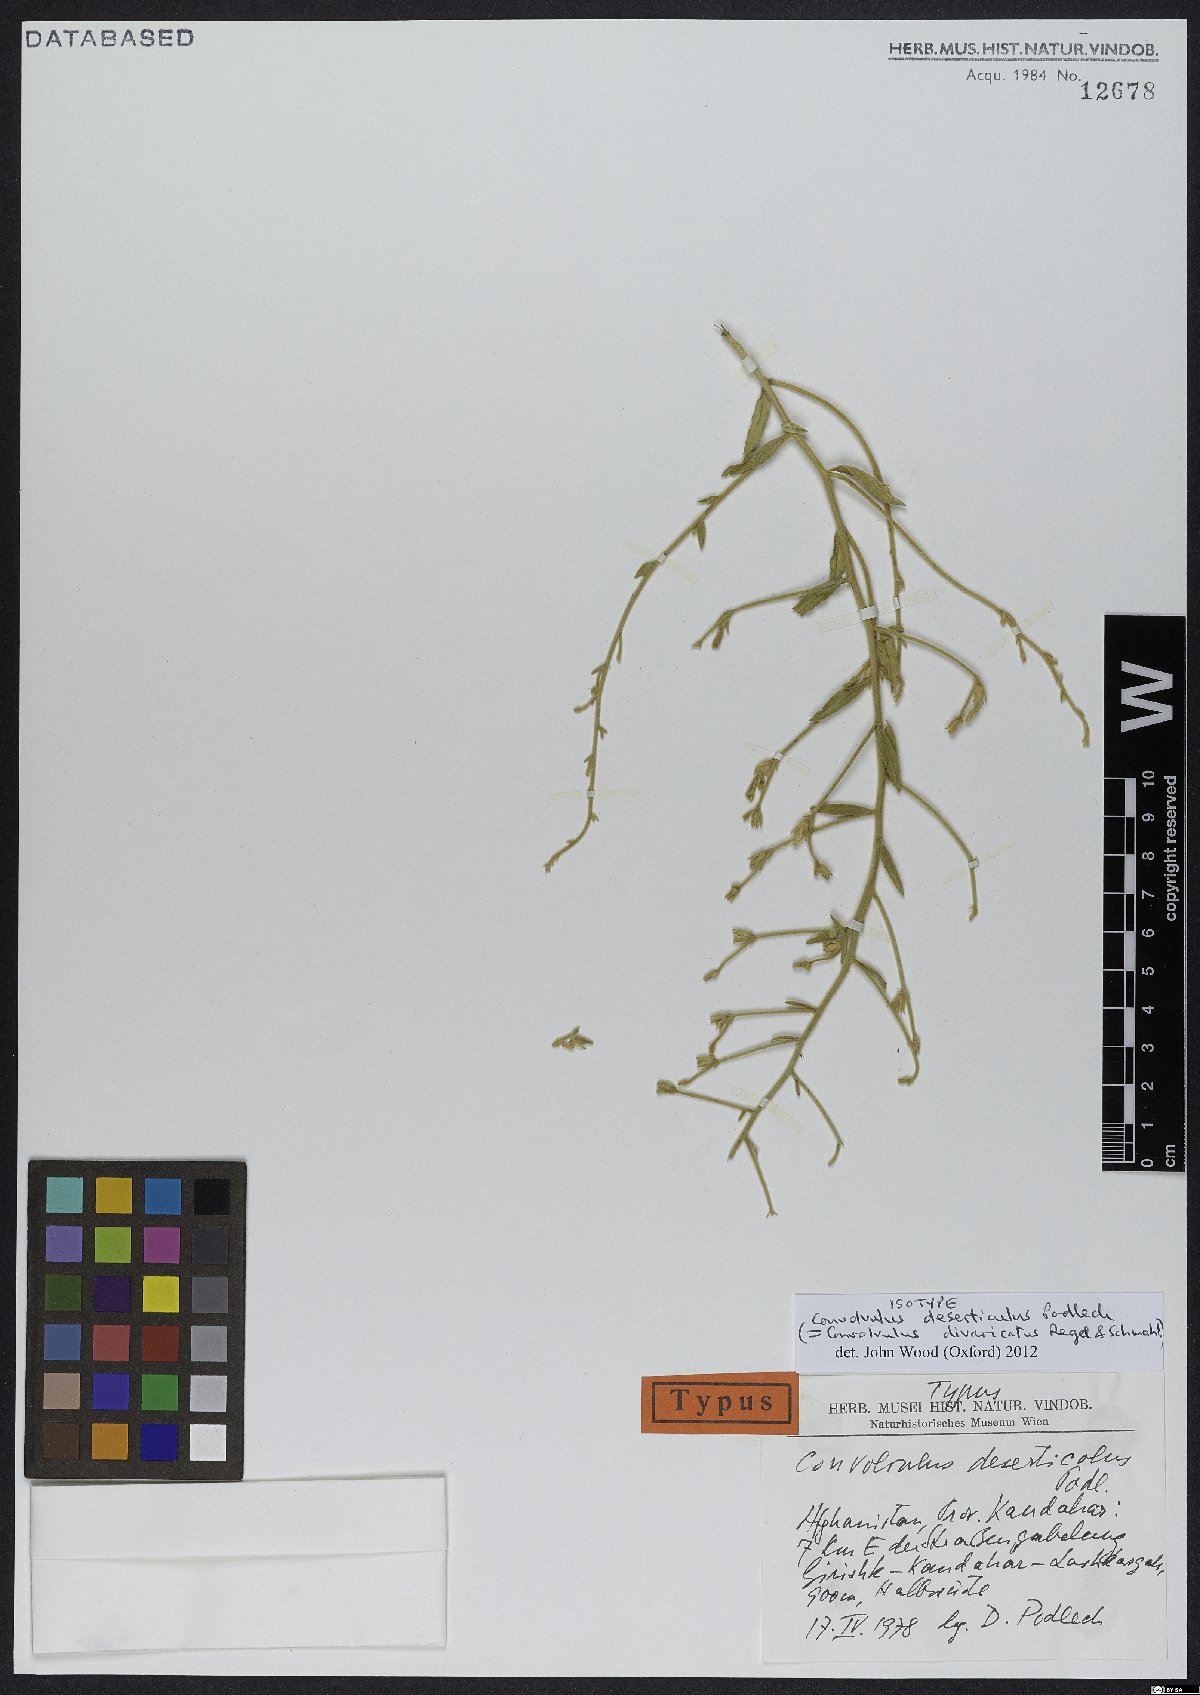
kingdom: Plantae
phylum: Tracheophyta
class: Magnoliopsida
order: Solanales
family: Convolvulaceae
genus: Convolvulus
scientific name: Convolvulus divaricatus
